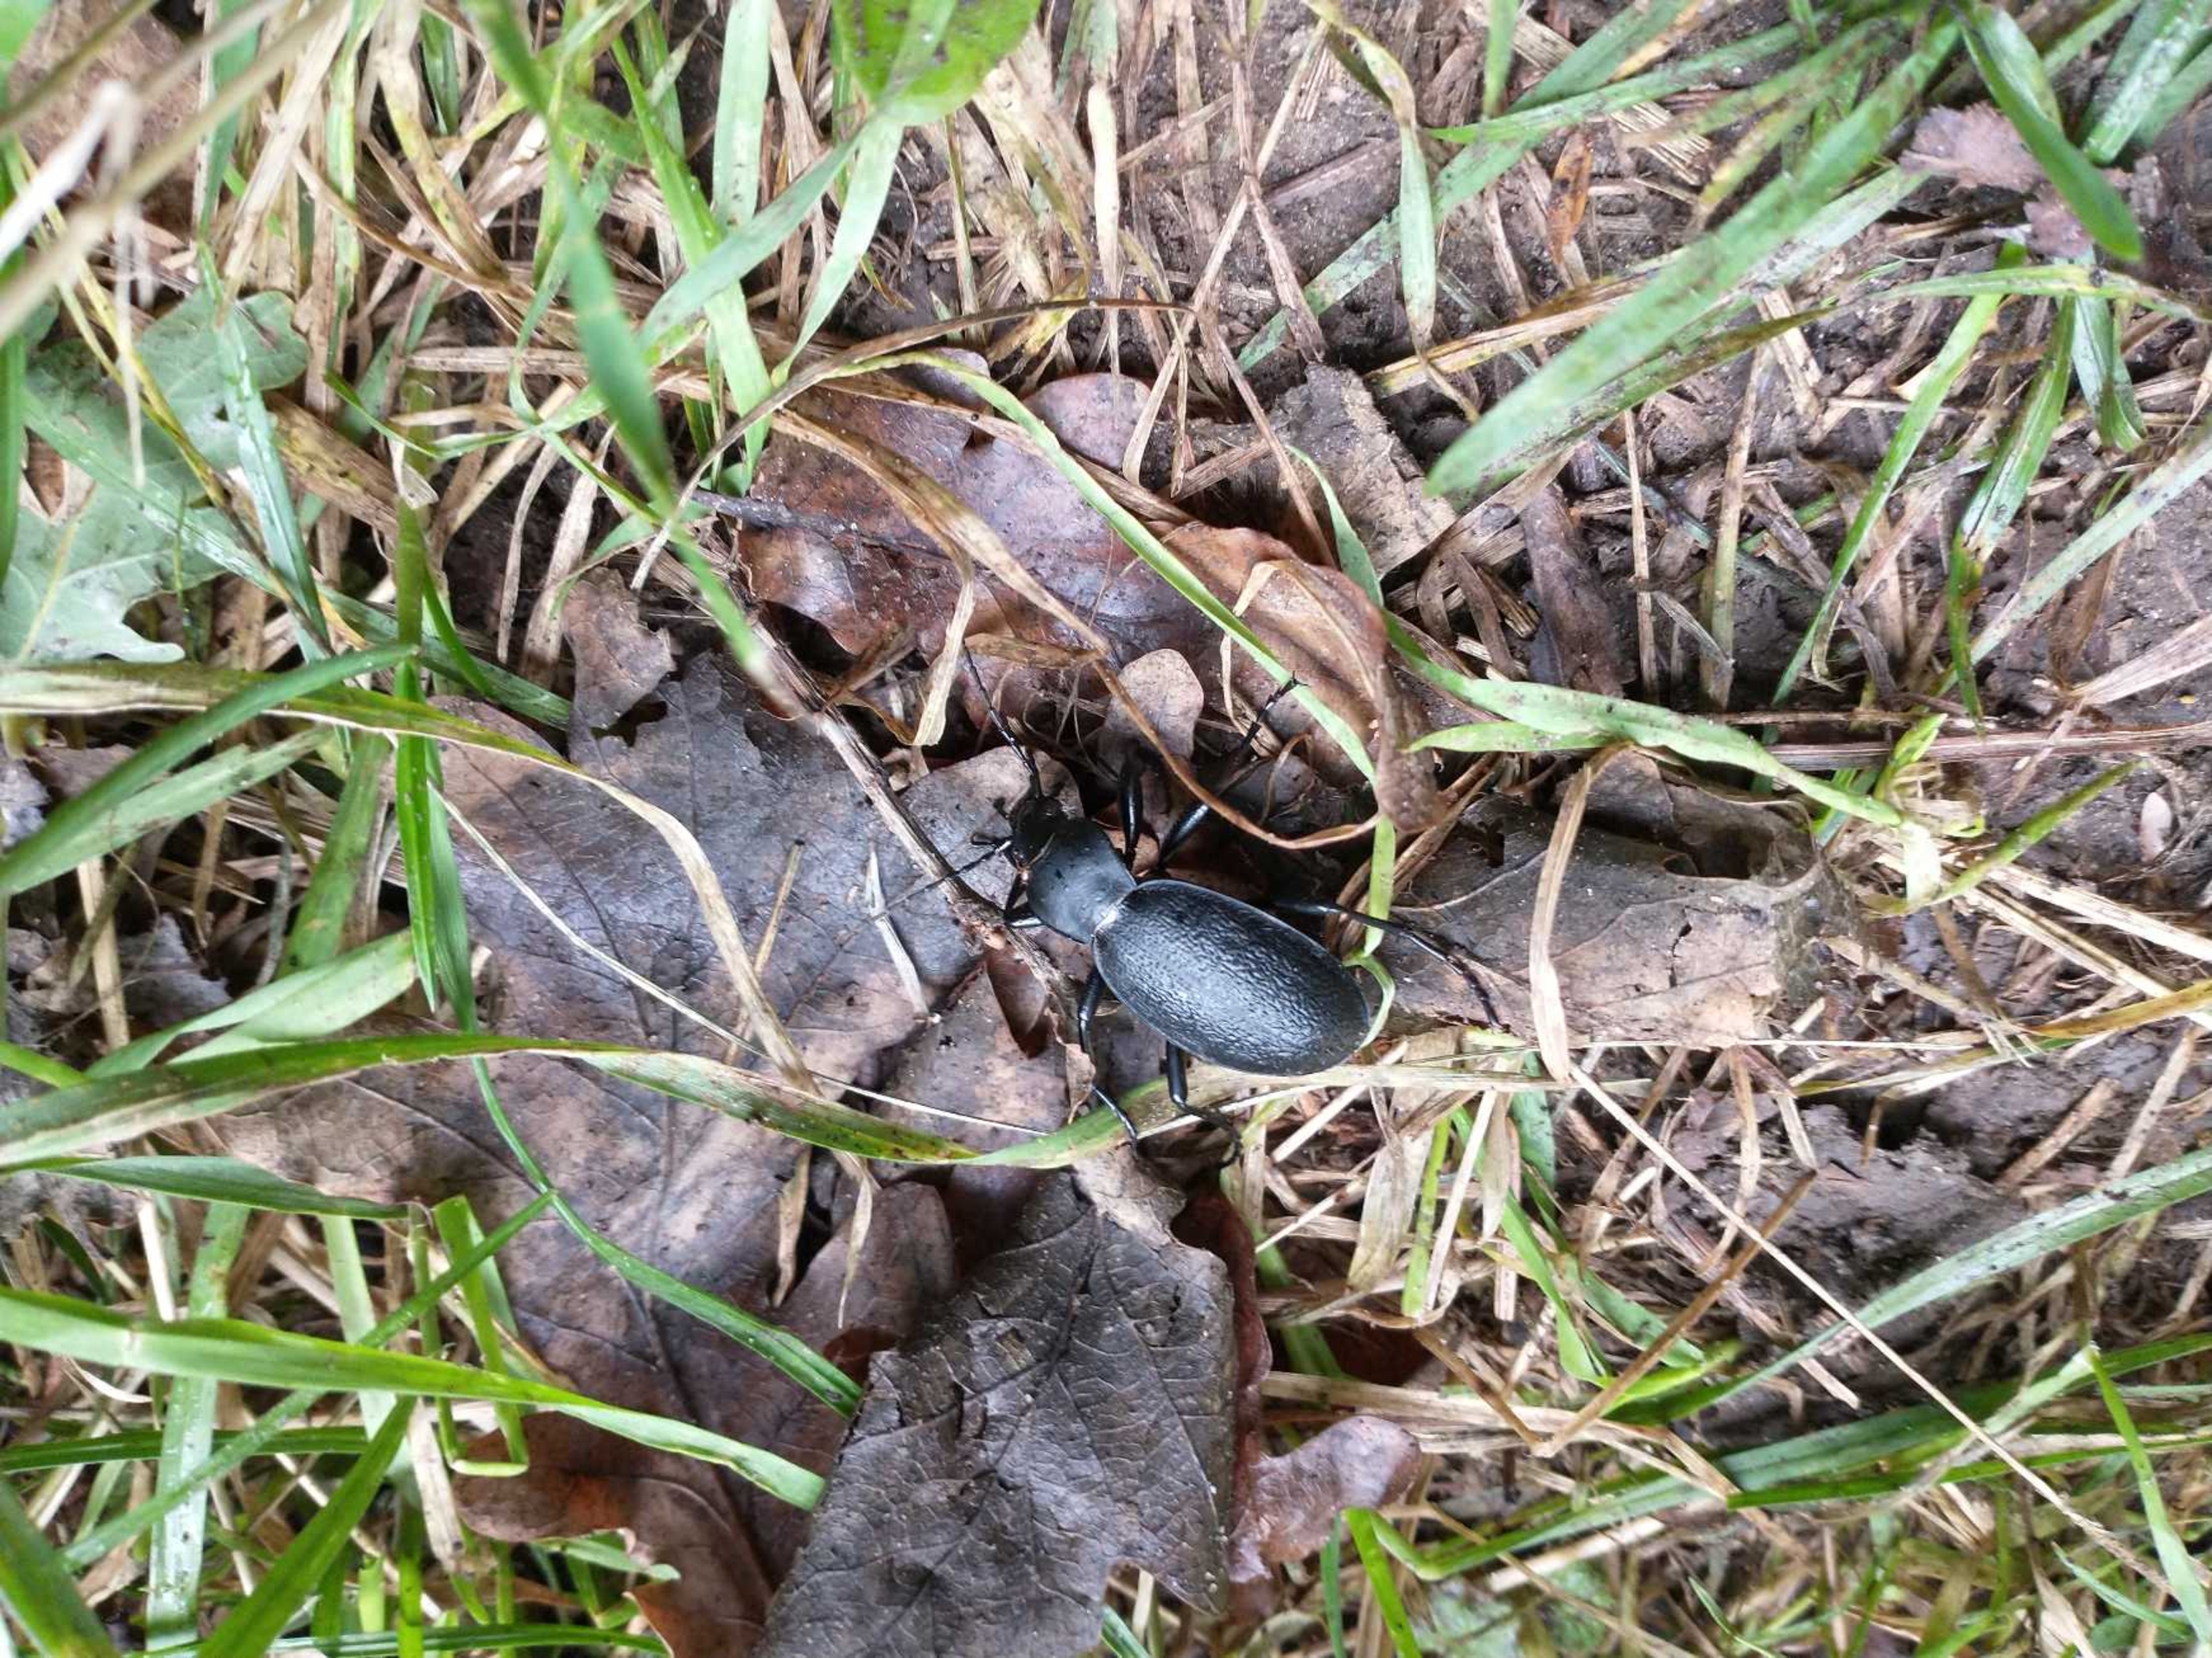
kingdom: Animalia
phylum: Arthropoda
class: Insecta
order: Coleoptera
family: Carabidae
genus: Carabus
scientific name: Carabus coriaceus
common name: Læderløber
